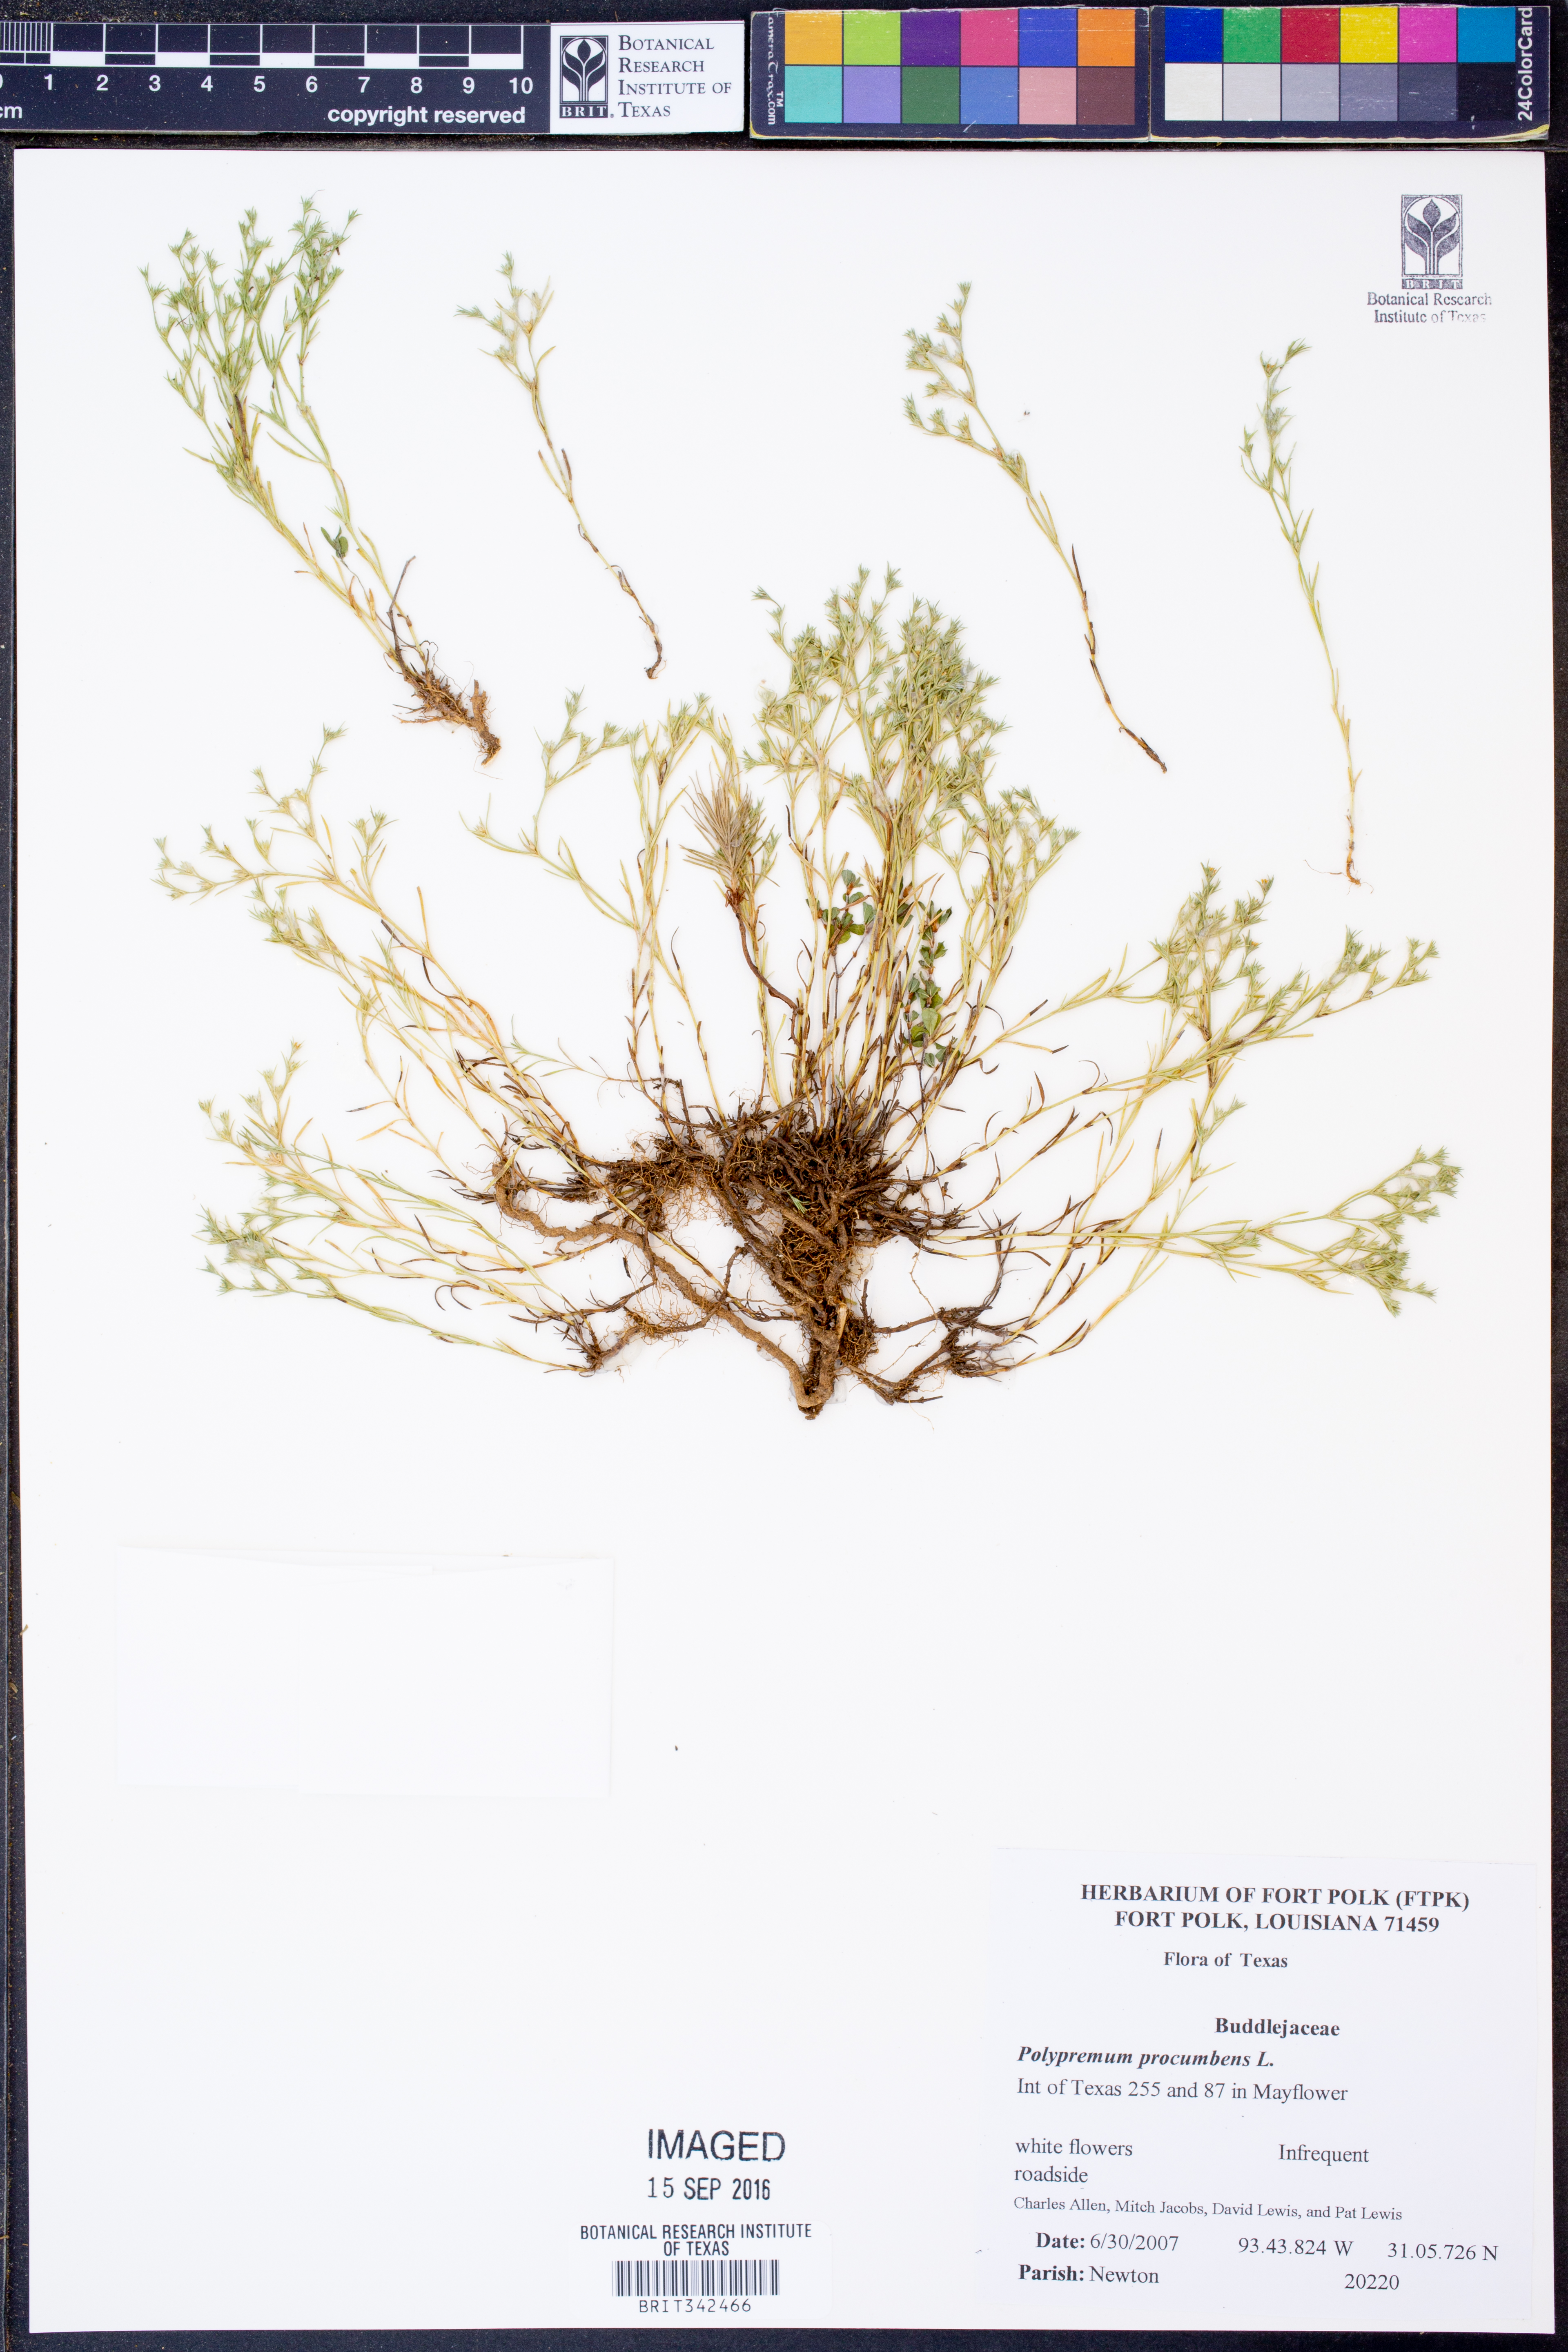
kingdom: Plantae
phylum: Tracheophyta
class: Magnoliopsida
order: Lamiales
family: Tetrachondraceae
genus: Polypremum
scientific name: Polypremum procumbens
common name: Juniper-leaf
